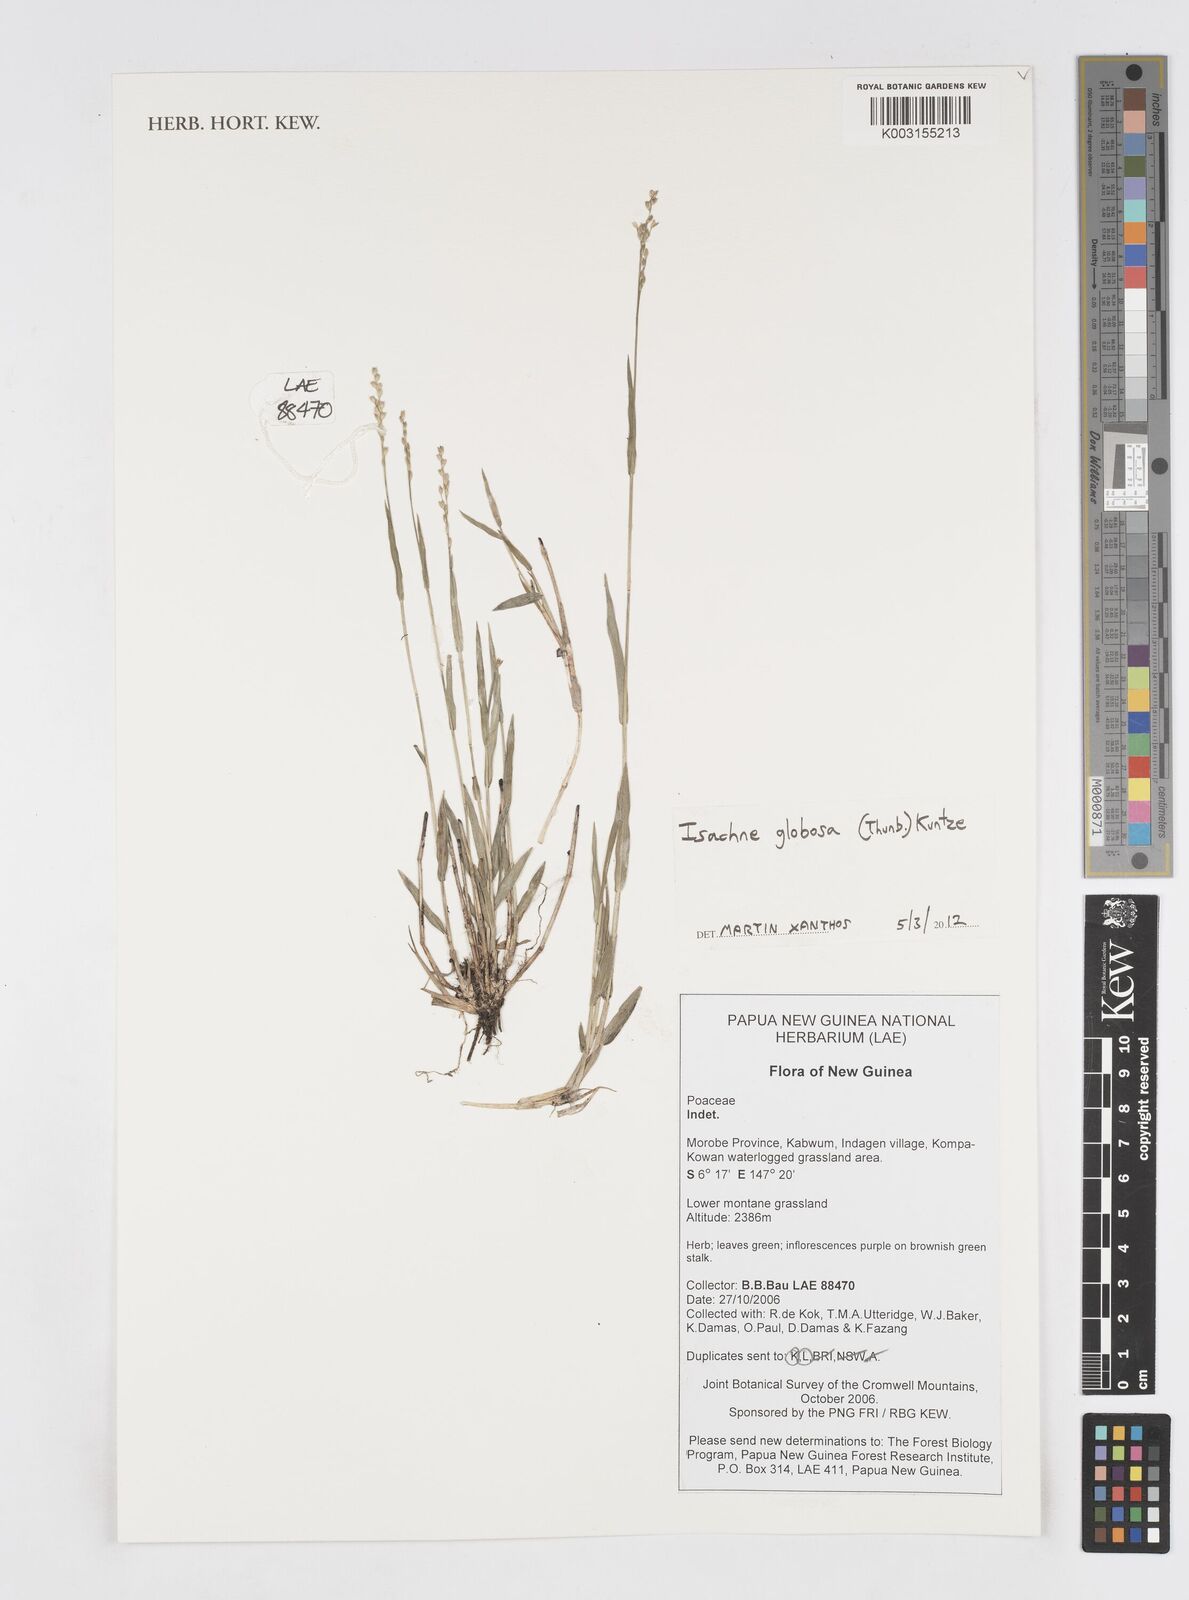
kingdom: Plantae
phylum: Tracheophyta
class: Liliopsida
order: Poales
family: Poaceae
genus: Isachne
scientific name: Isachne globosa
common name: Swamp millet
